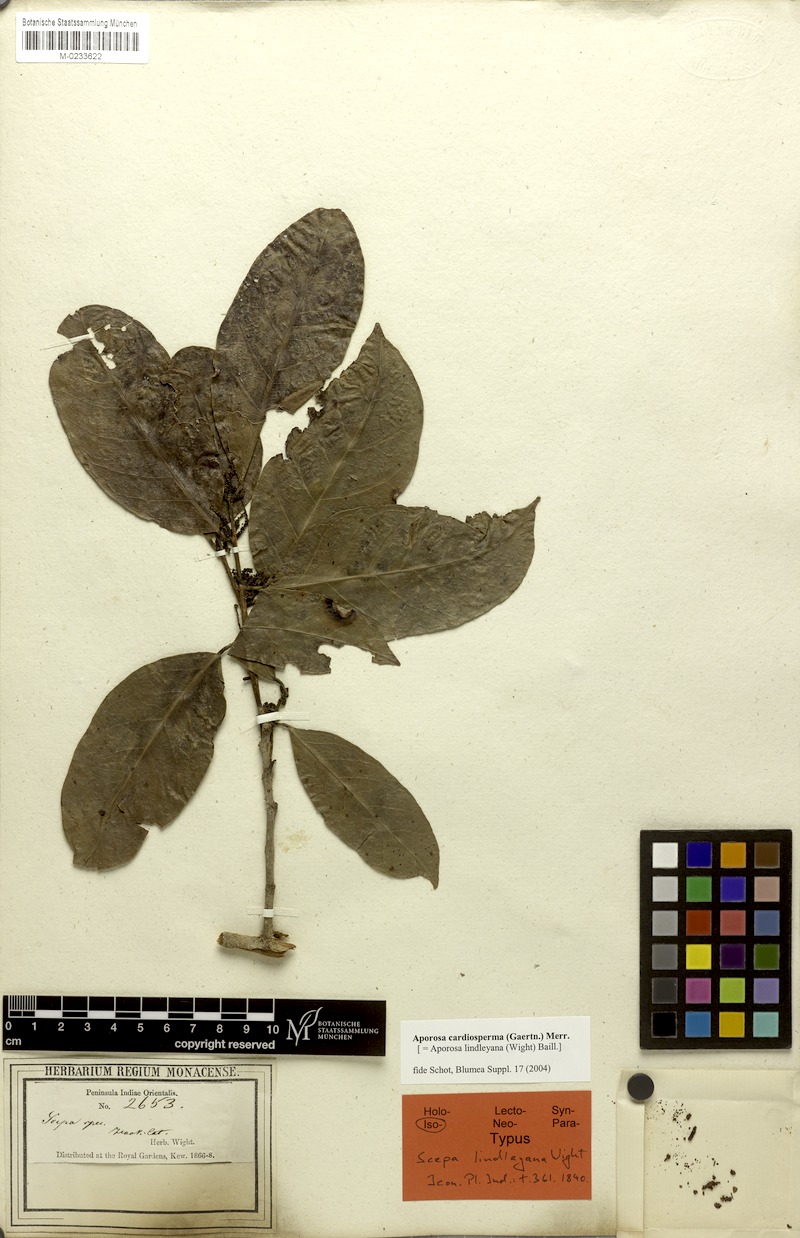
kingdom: Plantae
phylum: Tracheophyta
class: Magnoliopsida
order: Malpighiales
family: Phyllanthaceae
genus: Aporosa
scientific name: Aporosa cardiosperma
